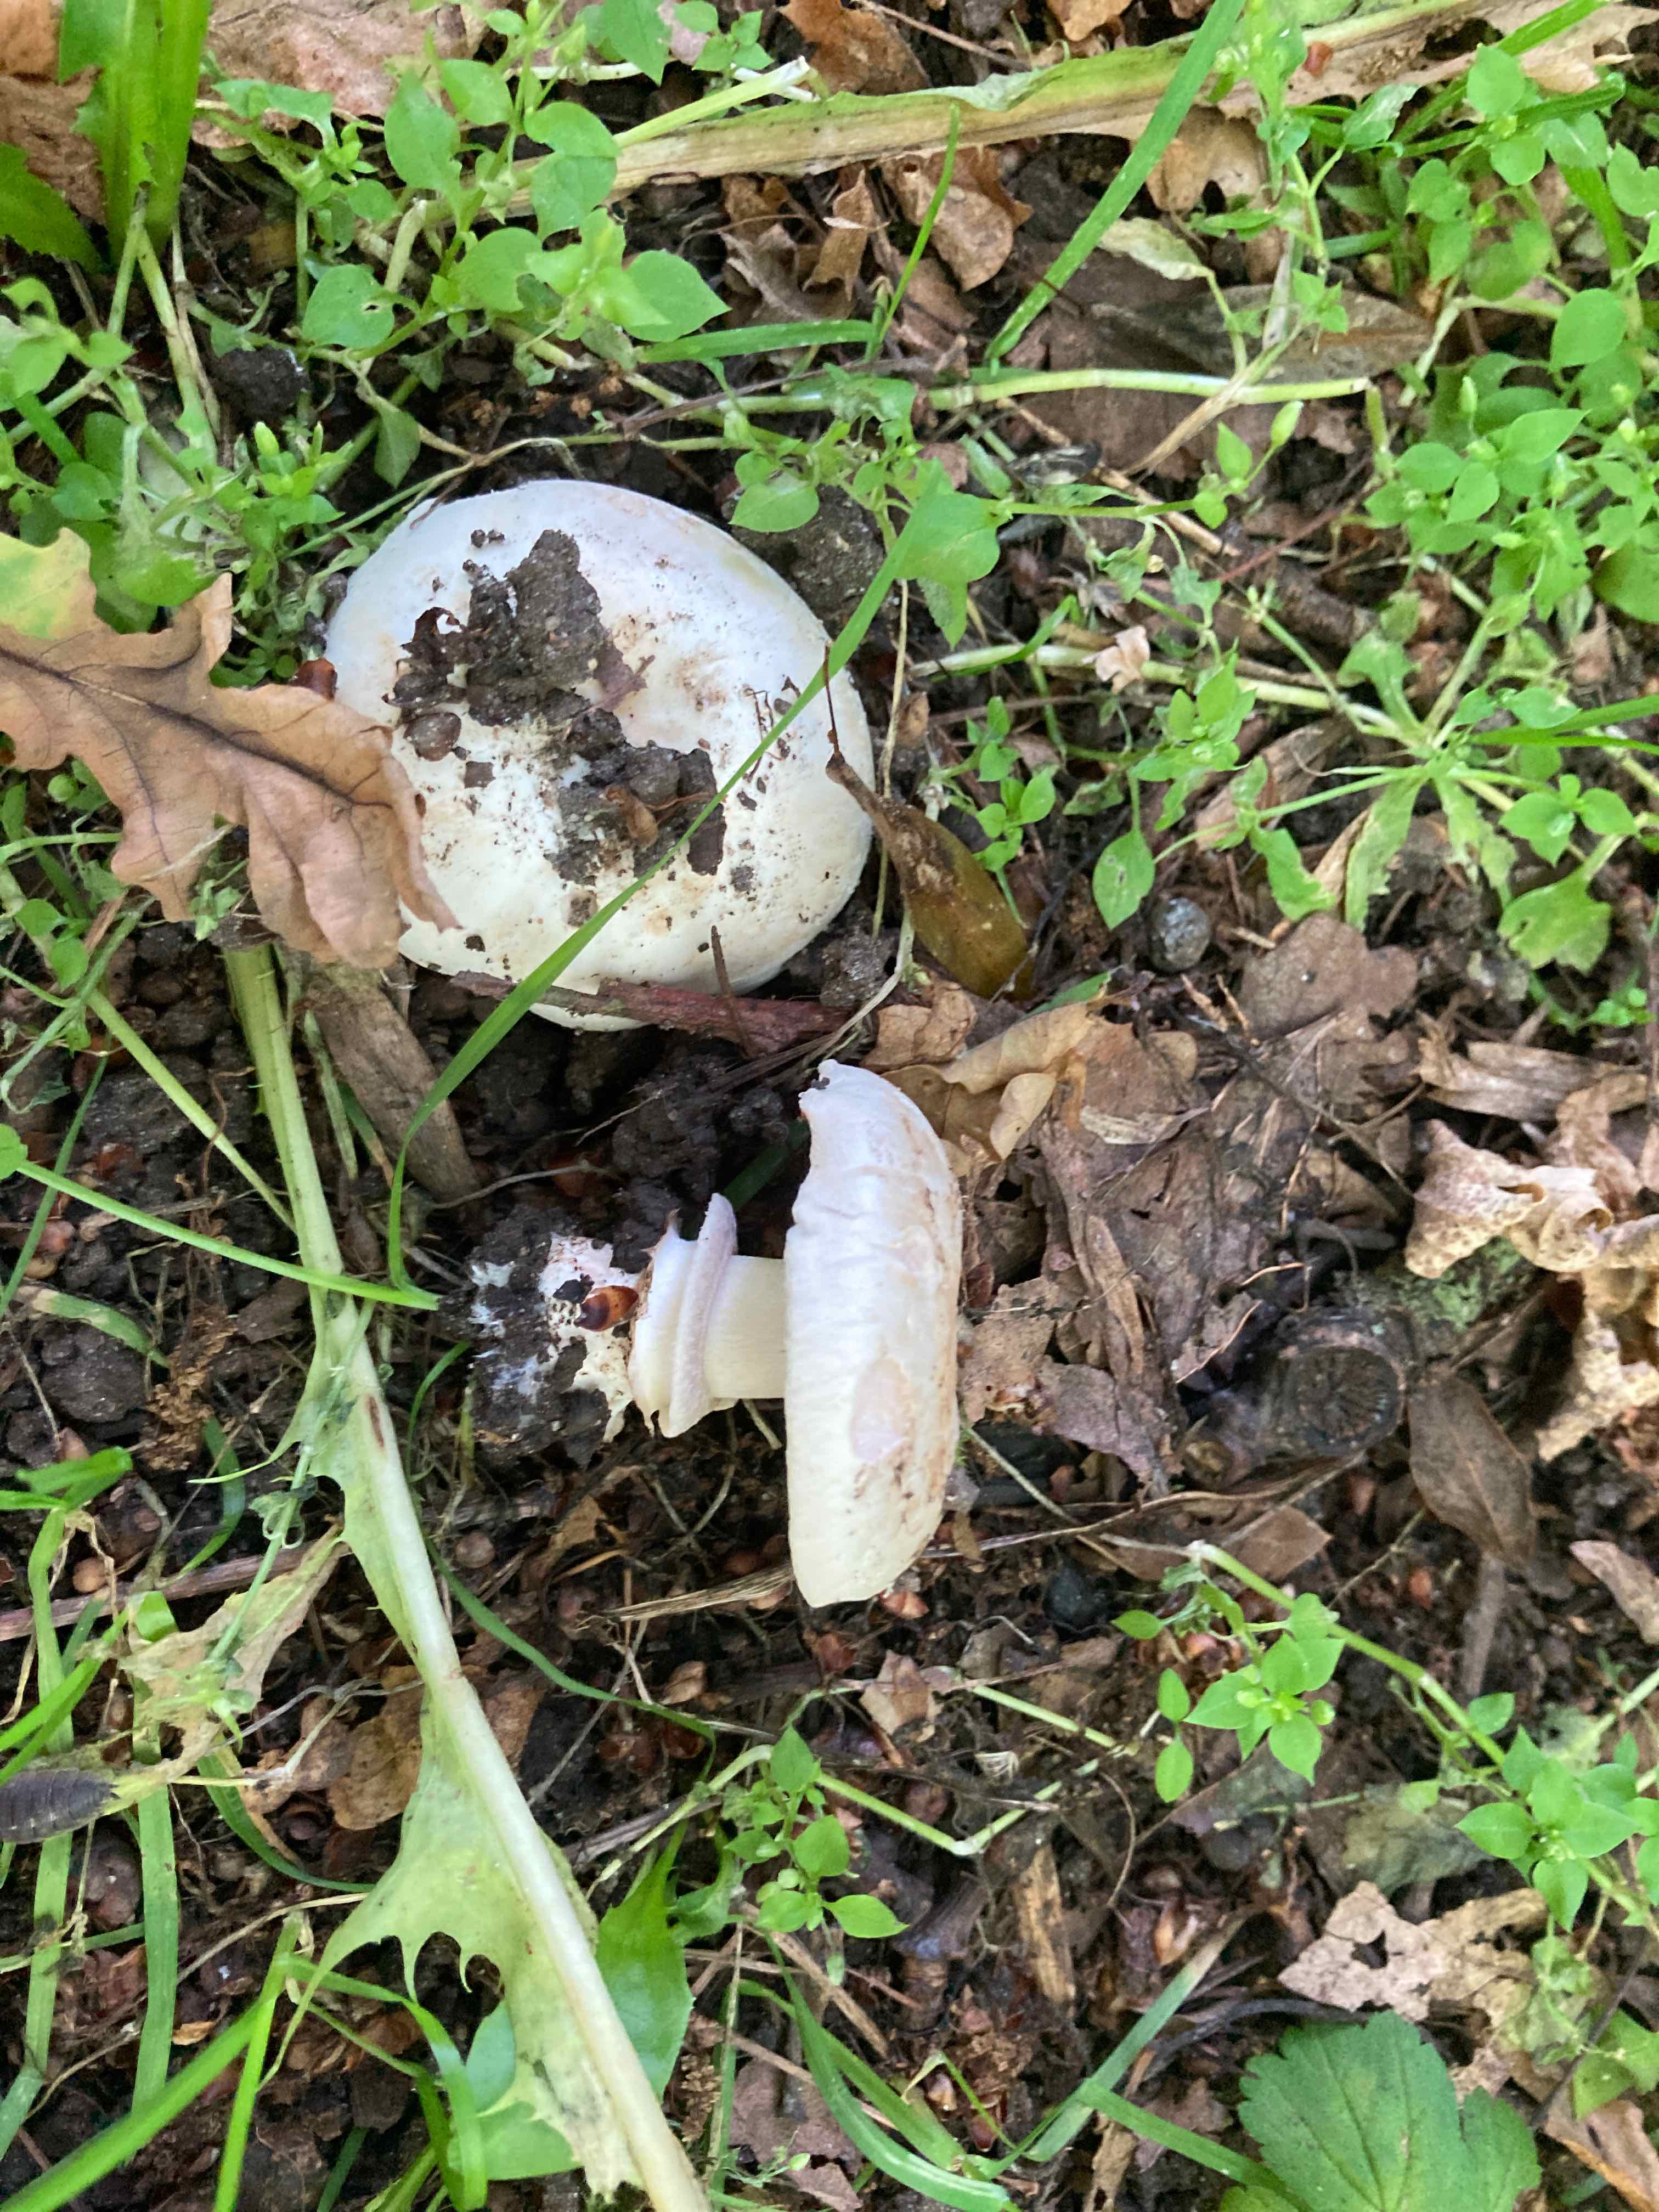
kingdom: Fungi
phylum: Basidiomycota
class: Agaricomycetes
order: Agaricales
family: Agaricaceae
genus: Agaricus
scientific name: Agaricus bitorquis
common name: vej-champignon
